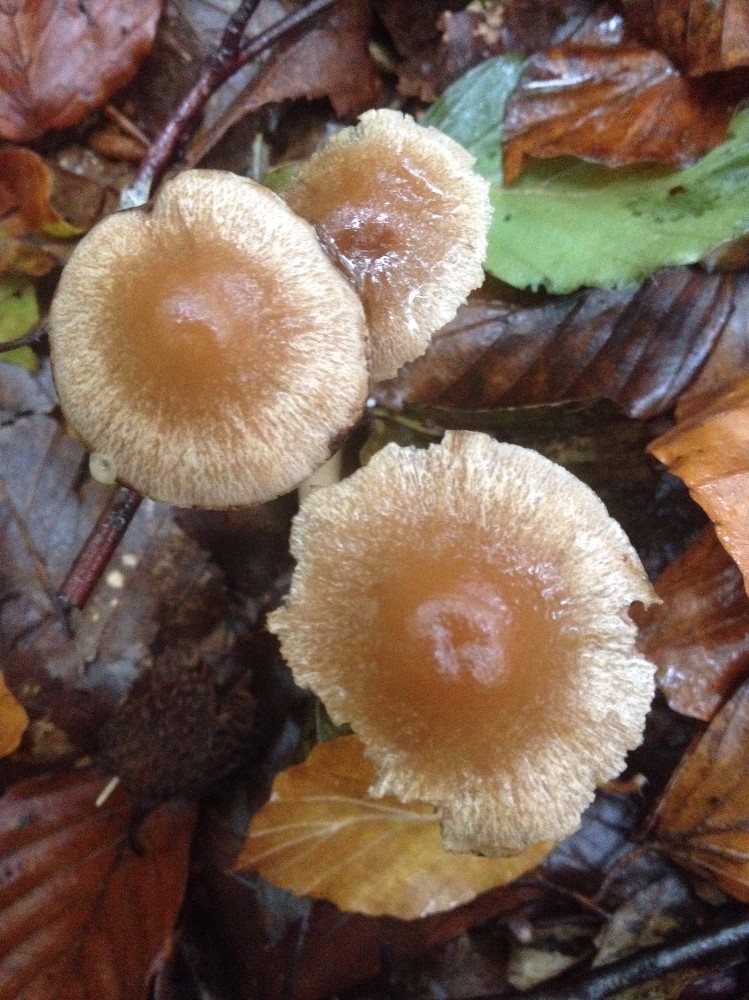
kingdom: Fungi
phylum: Basidiomycota
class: Agaricomycetes
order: Agaricales
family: Inocybaceae
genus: Inocybe
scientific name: Inocybe
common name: trævlhat
